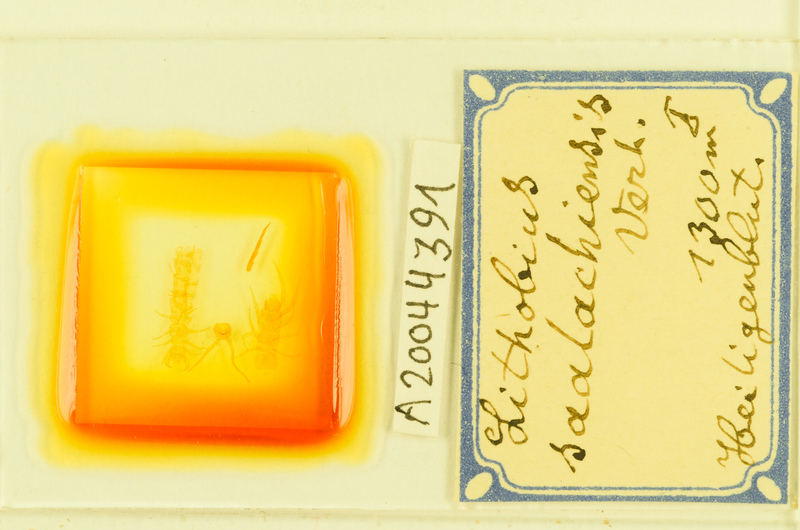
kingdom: Animalia
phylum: Arthropoda
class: Chilopoda
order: Lithobiomorpha
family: Lithobiidae
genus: Lithobius
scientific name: Lithobius borealis
